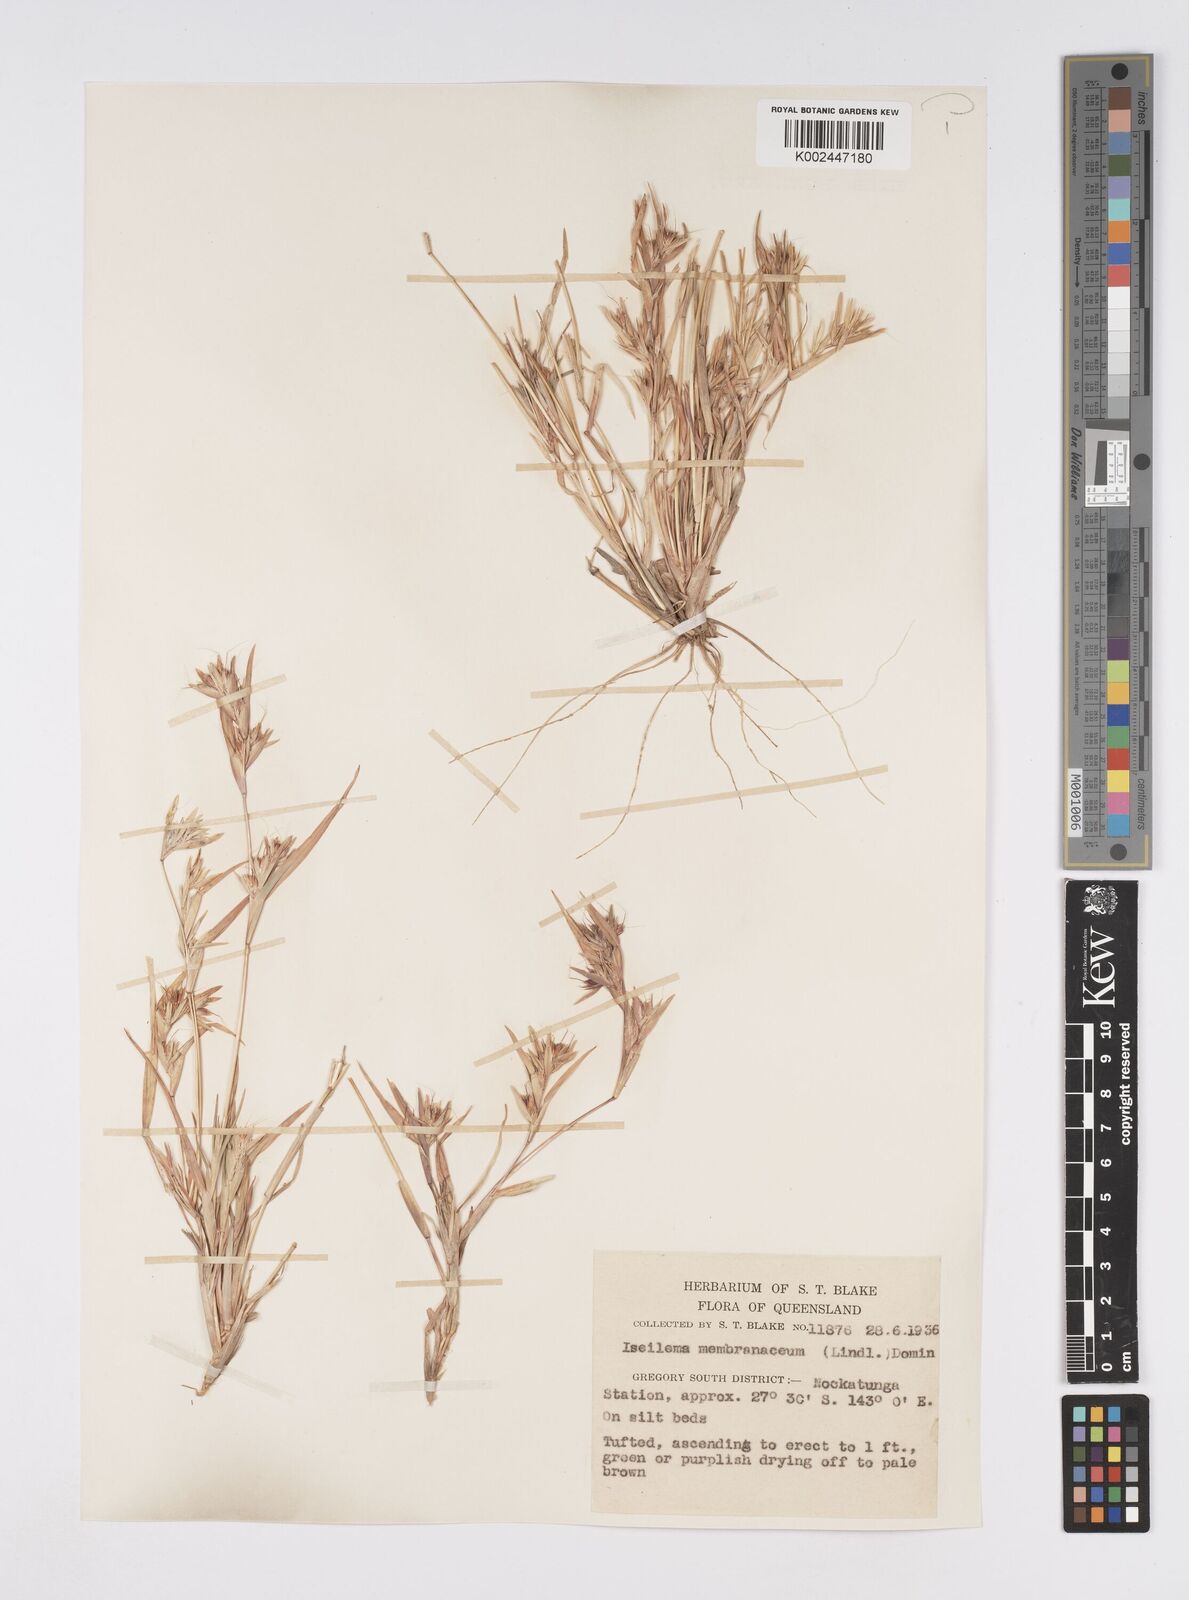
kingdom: Plantae
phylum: Tracheophyta
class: Liliopsida
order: Poales
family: Poaceae
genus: Iseilema
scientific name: Iseilema membranaceum
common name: Small flinders grass
